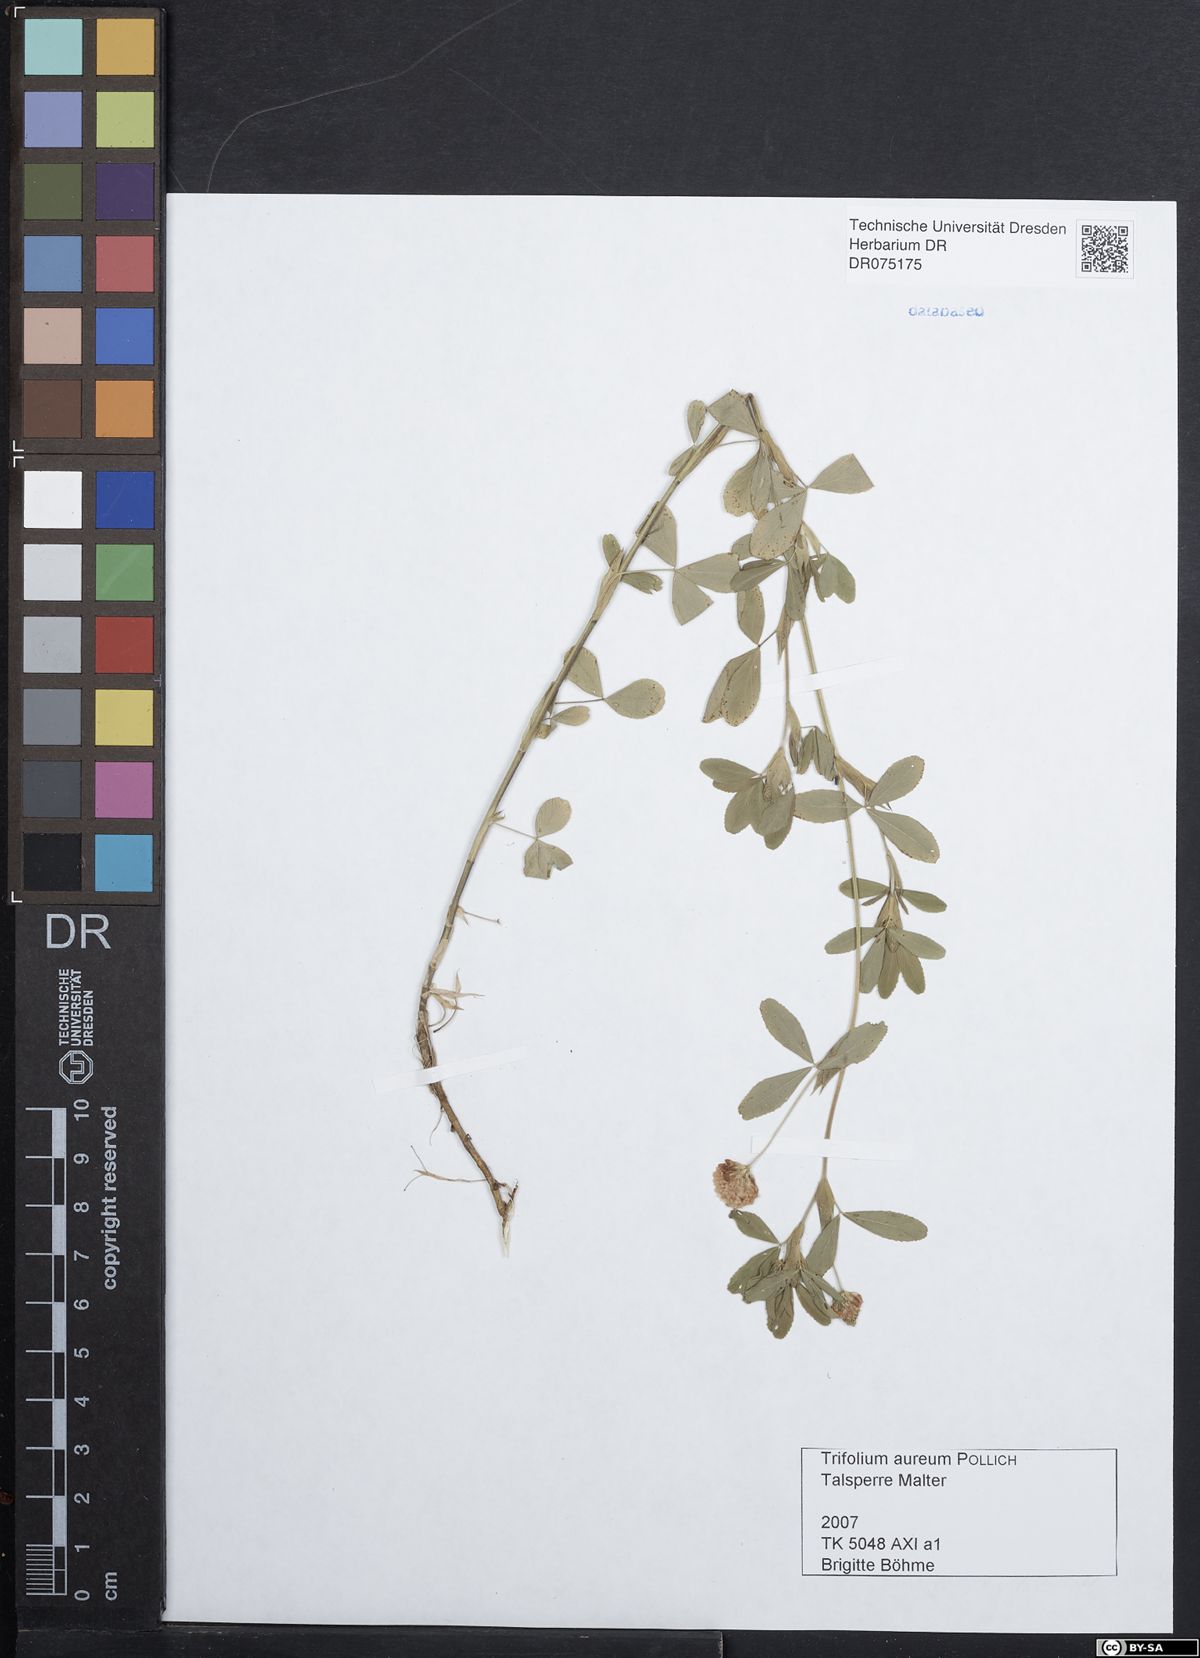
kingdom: Plantae
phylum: Tracheophyta
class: Magnoliopsida
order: Fabales
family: Fabaceae
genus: Trifolium
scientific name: Trifolium aureum
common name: Golden clover
